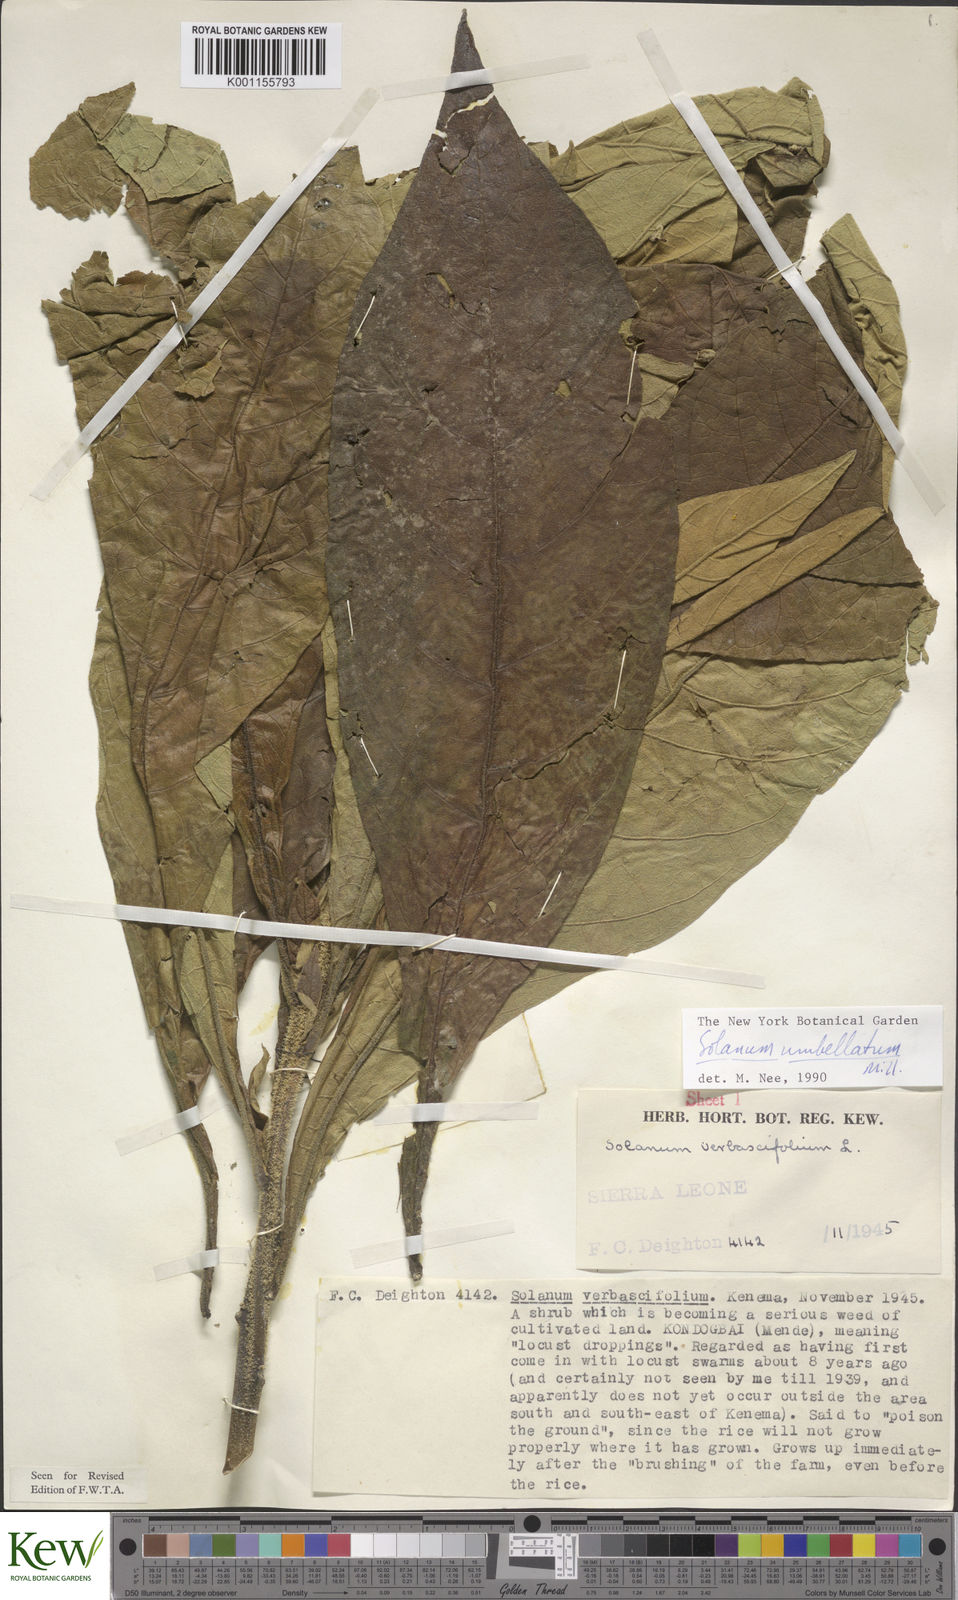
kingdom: Plantae
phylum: Tracheophyta
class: Magnoliopsida
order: Solanales
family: Solanaceae
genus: Solanum
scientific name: Solanum rugosum
